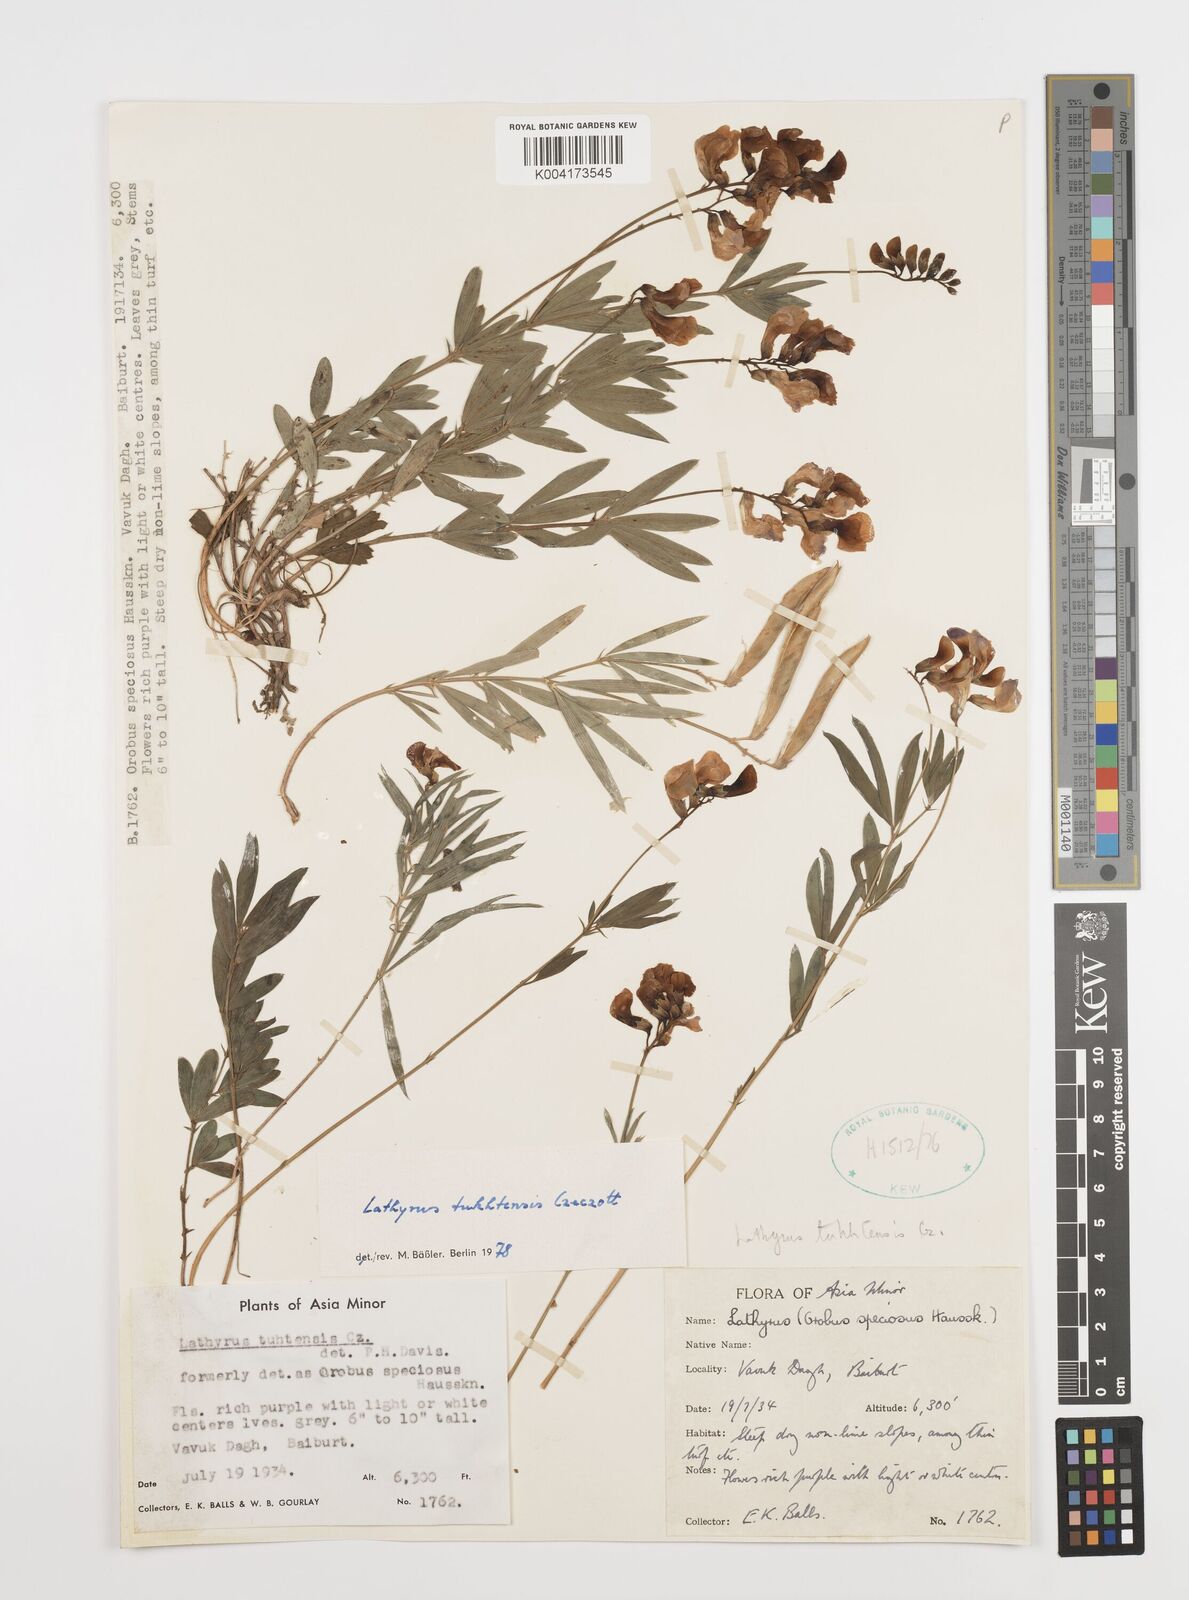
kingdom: Plantae
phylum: Tracheophyta
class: Magnoliopsida
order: Fabales
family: Fabaceae
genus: Lathyrus
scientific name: Lathyrus tukhtensis
